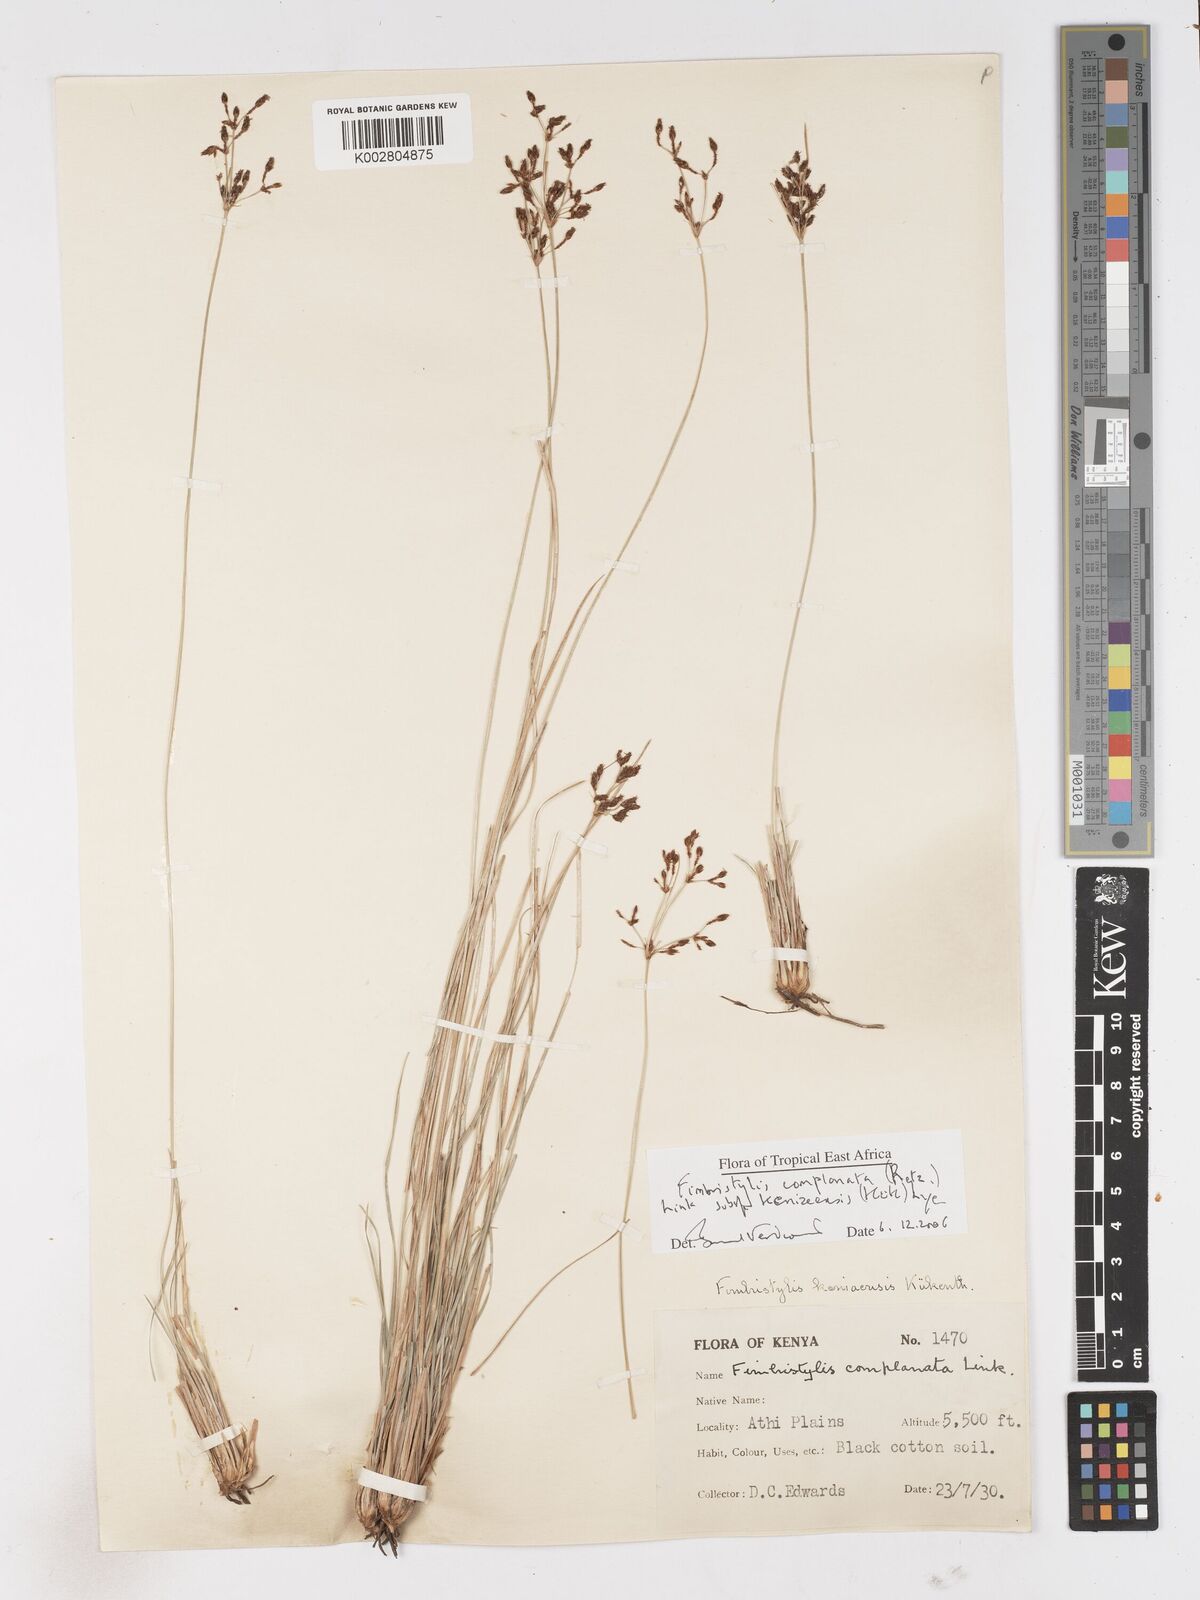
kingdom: Plantae
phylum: Tracheophyta
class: Liliopsida
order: Poales
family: Cyperaceae
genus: Fimbristylis
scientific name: Fimbristylis complanata
